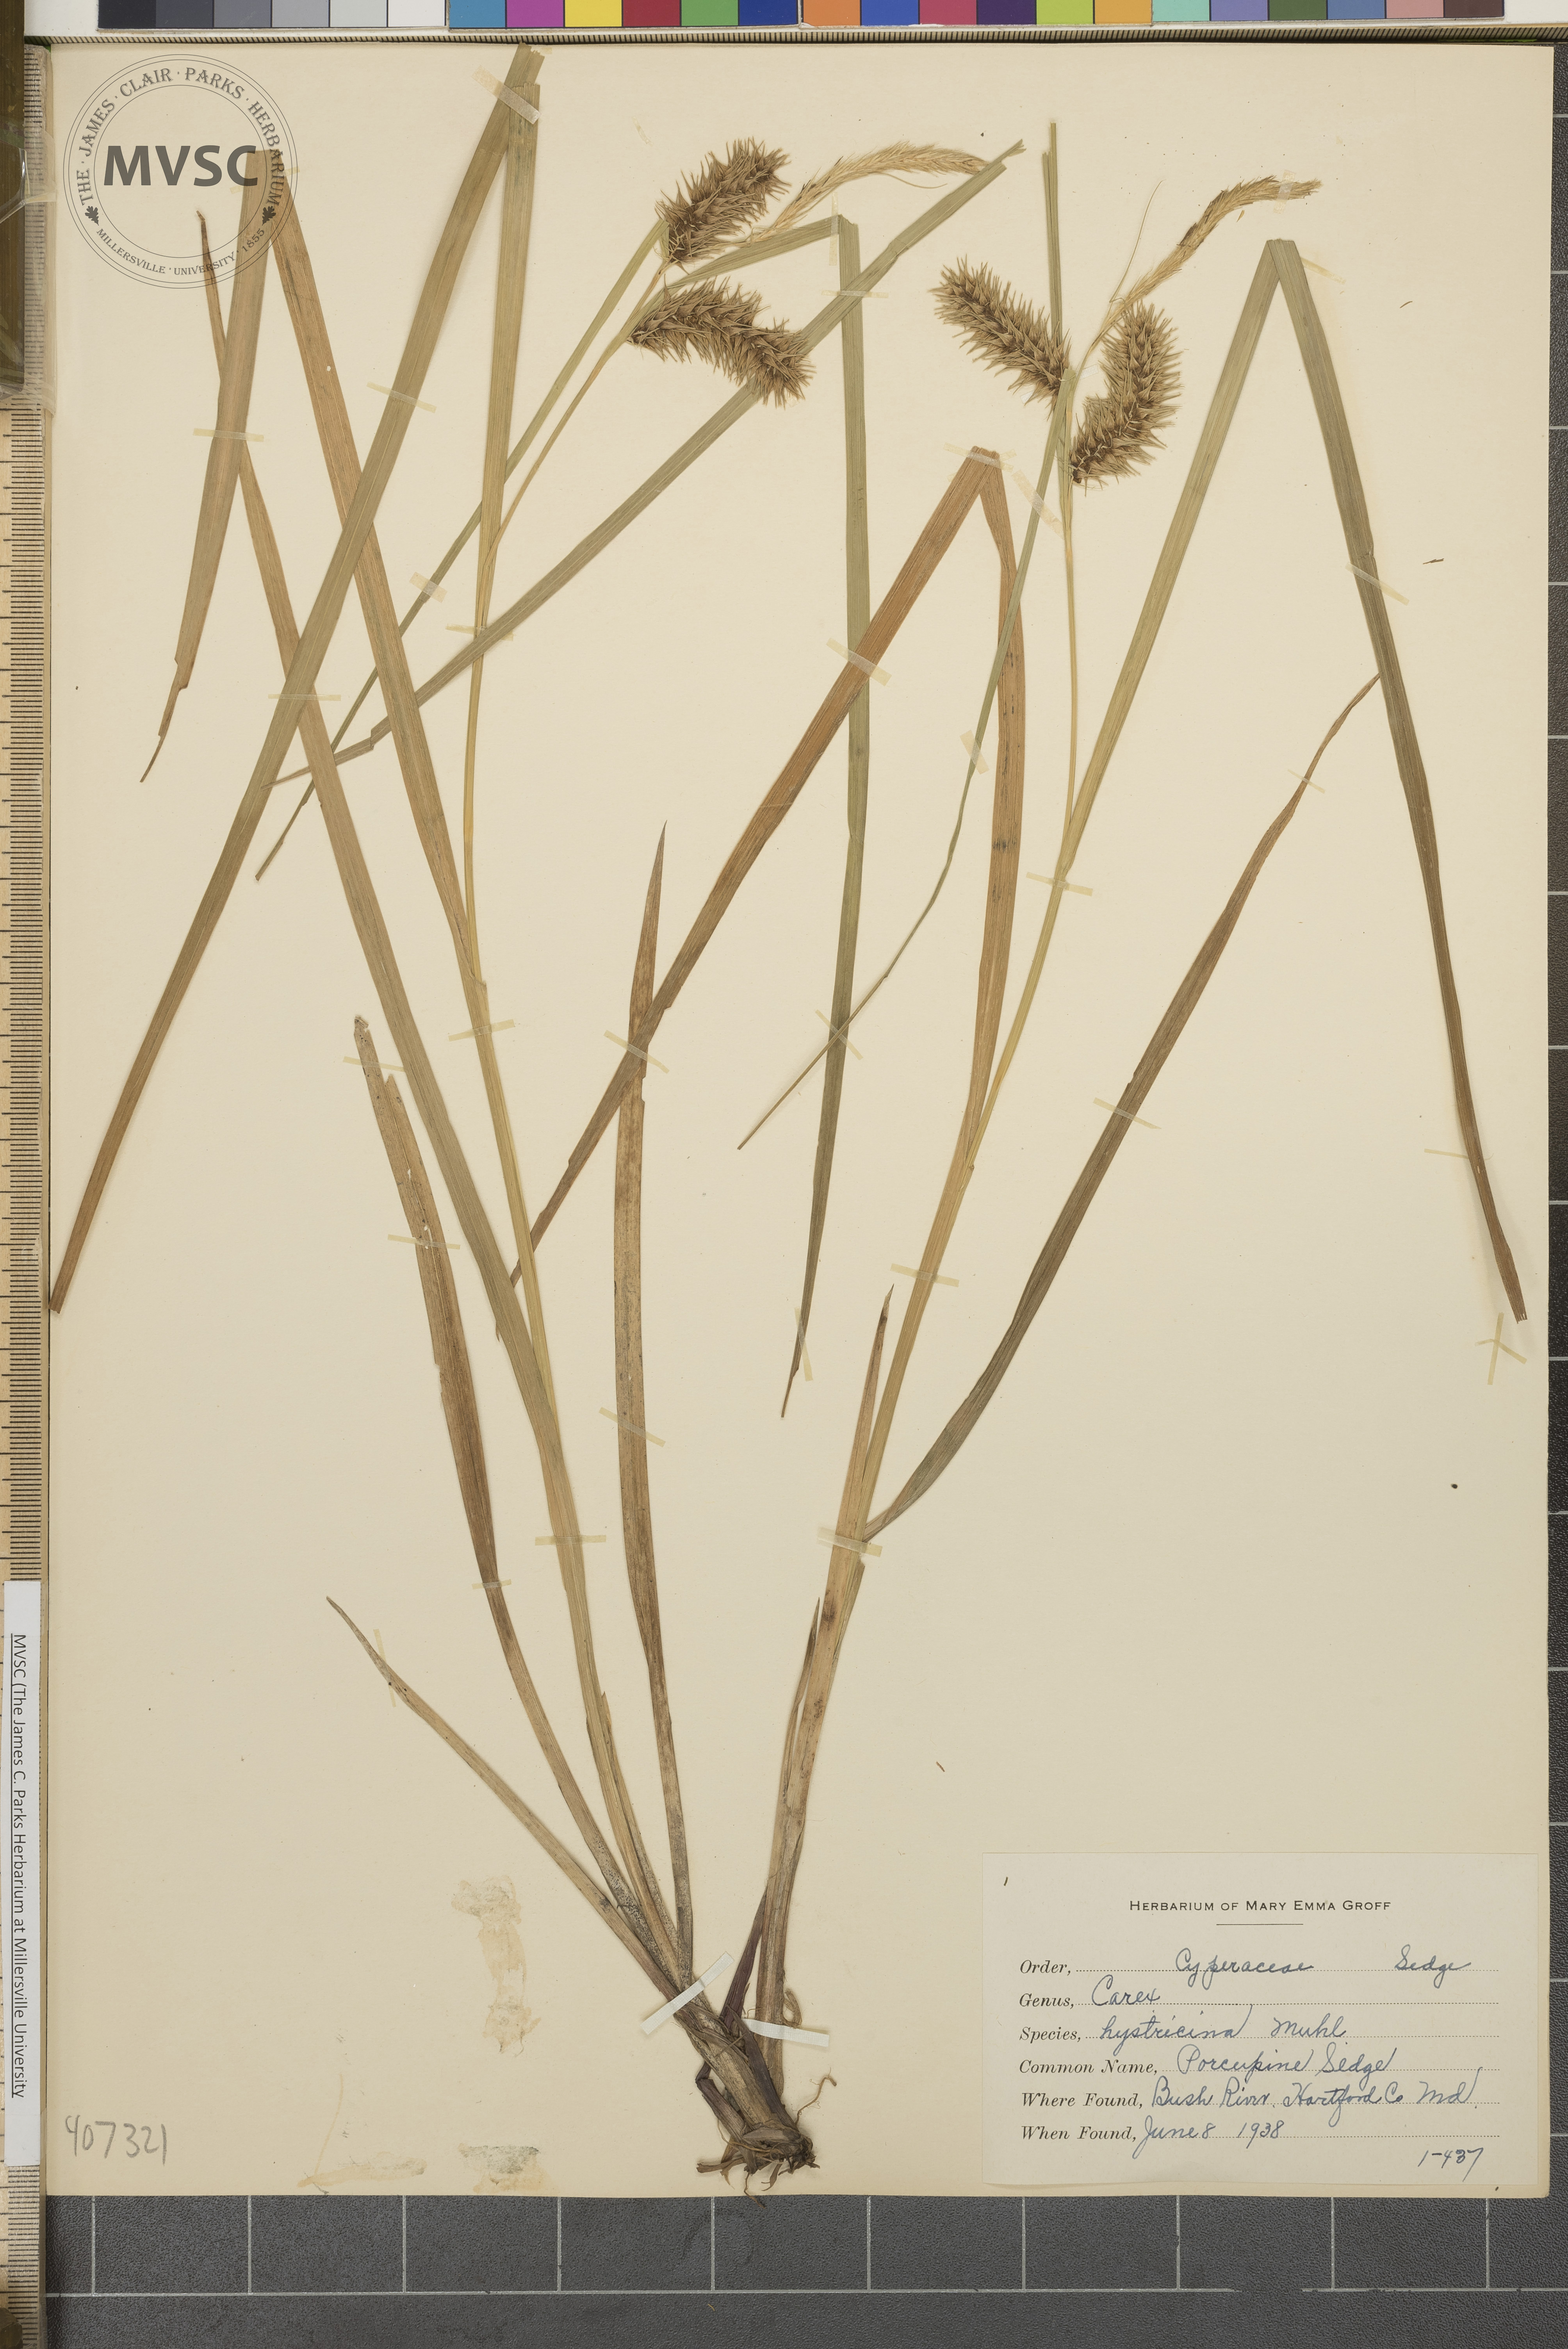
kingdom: Plantae
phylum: Tracheophyta
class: Liliopsida
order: Poales
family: Cyperaceae
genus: Carex
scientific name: Carex lurida
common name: Sallow sedge
